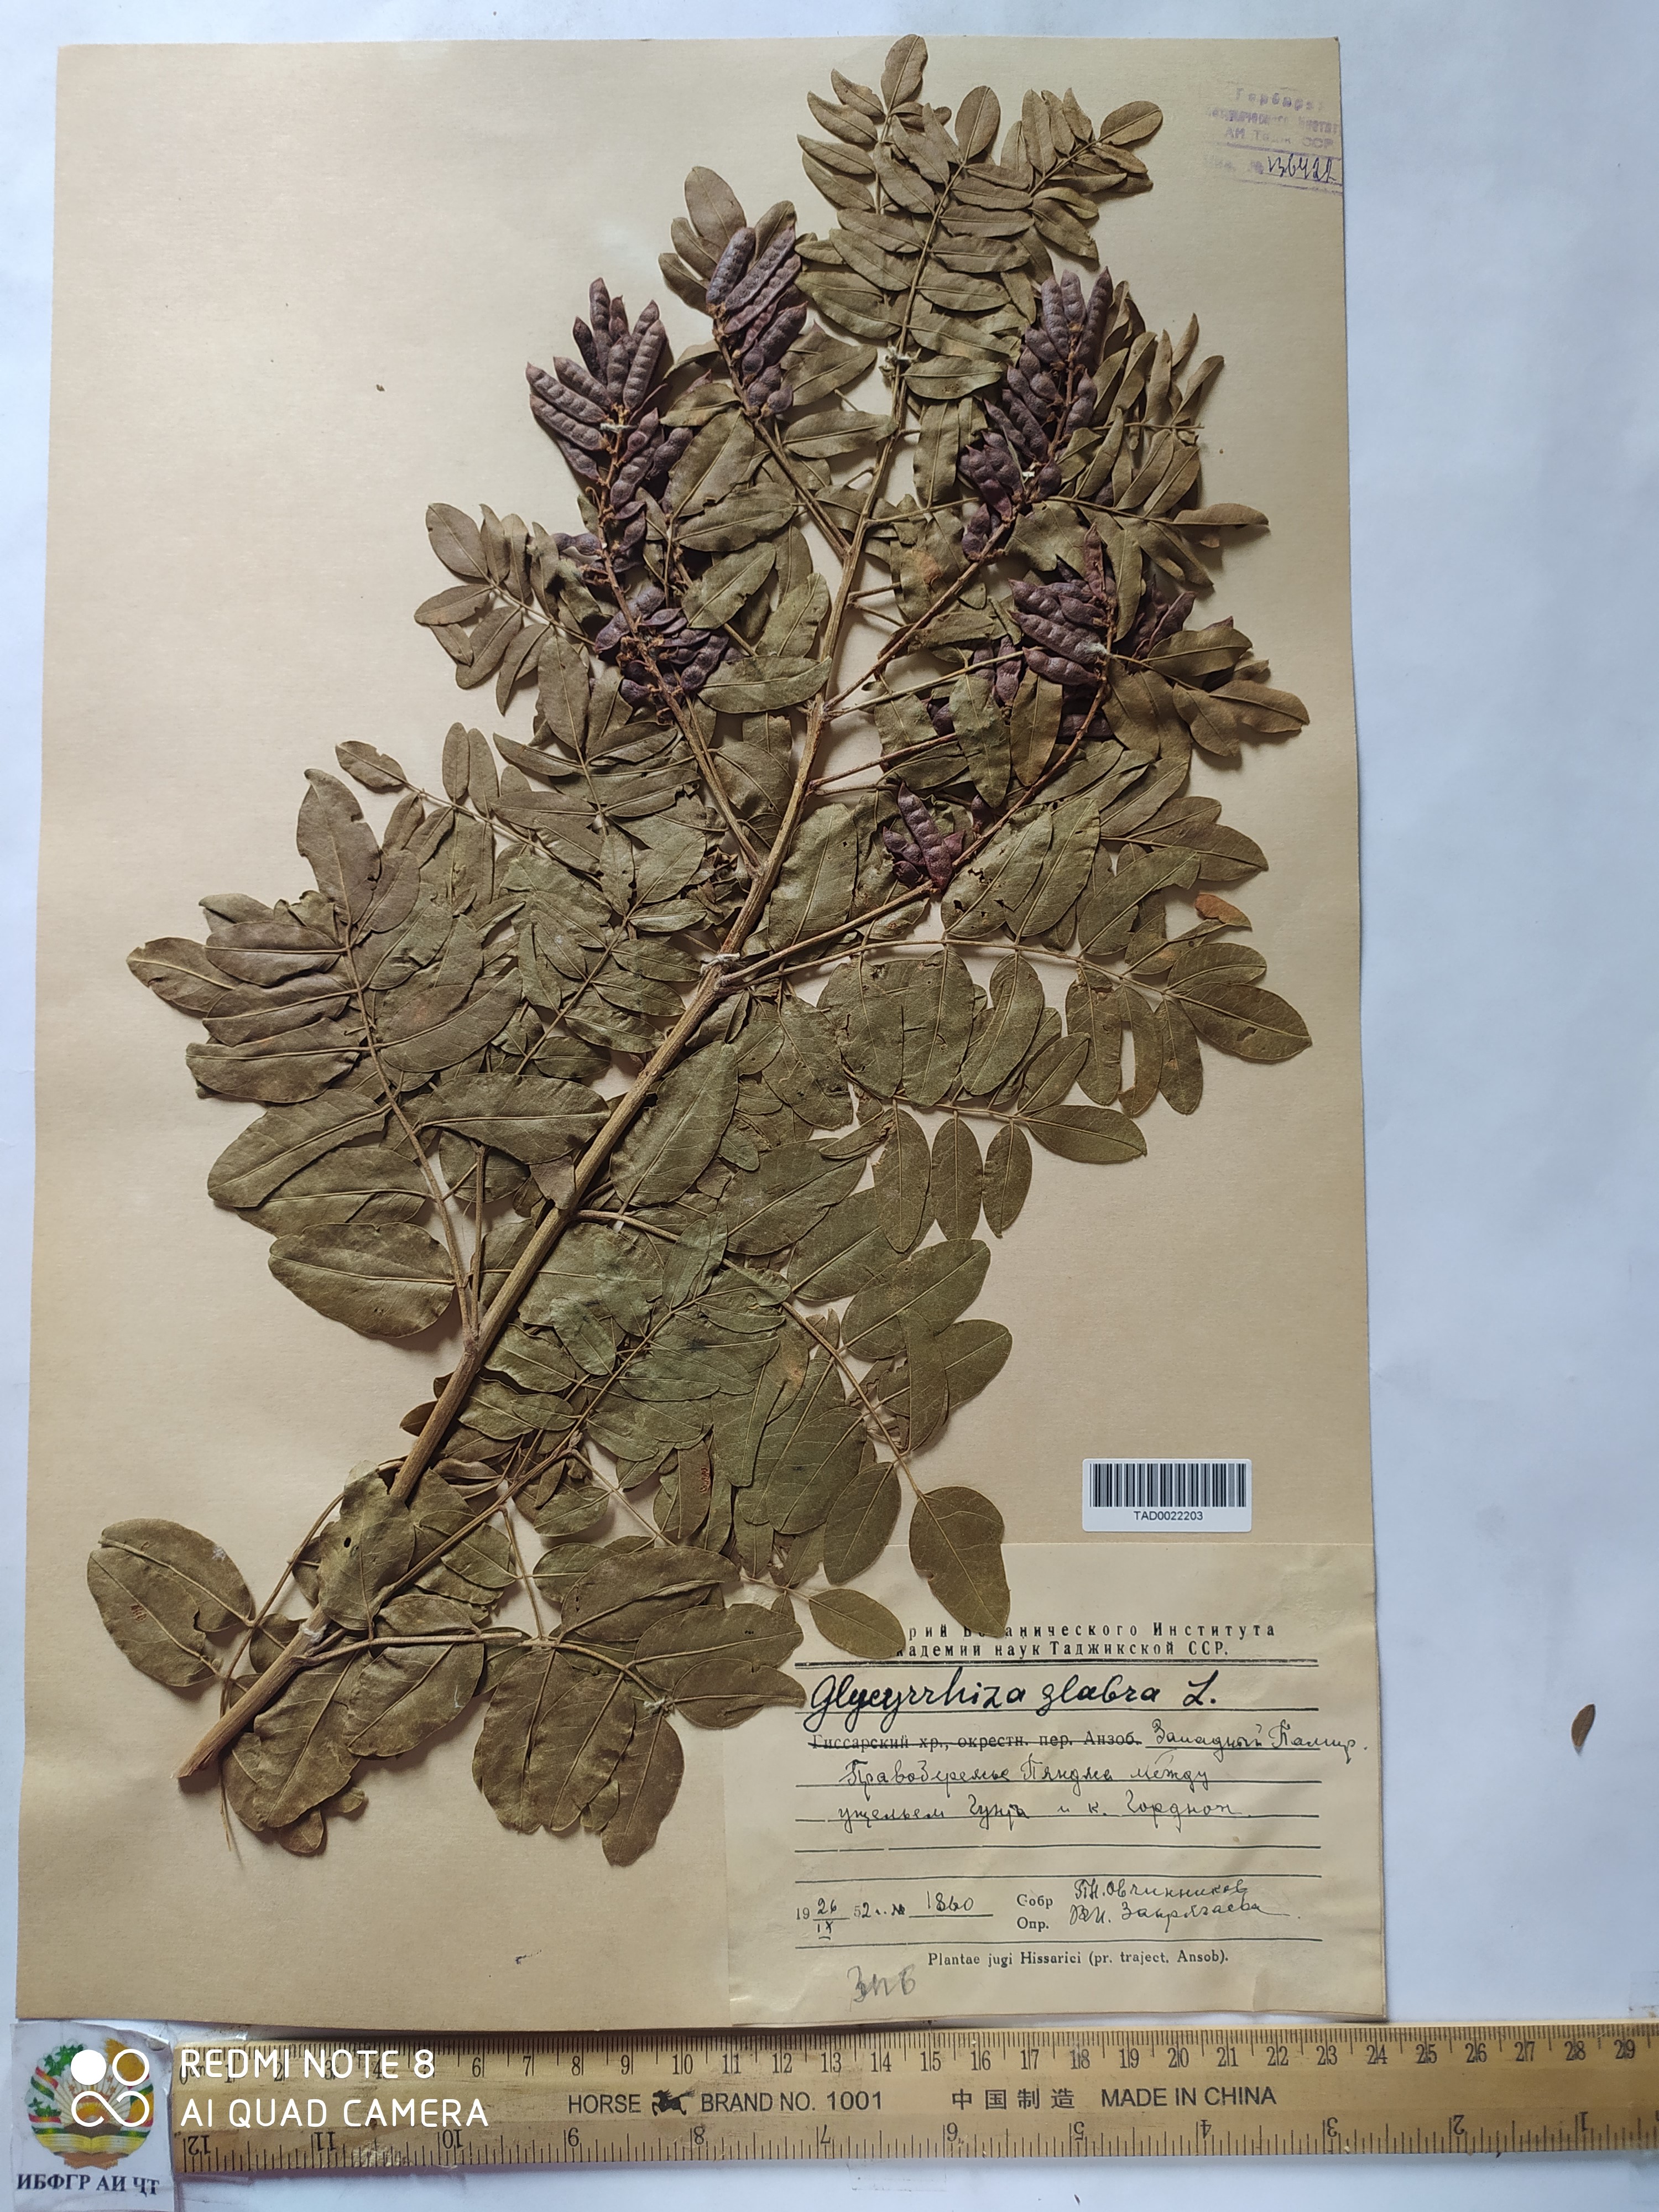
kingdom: Plantae
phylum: Tracheophyta
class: Magnoliopsida
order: Fabales
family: Fabaceae
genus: Glycyrrhiza
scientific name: Glycyrrhiza glabra
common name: Liquorice
